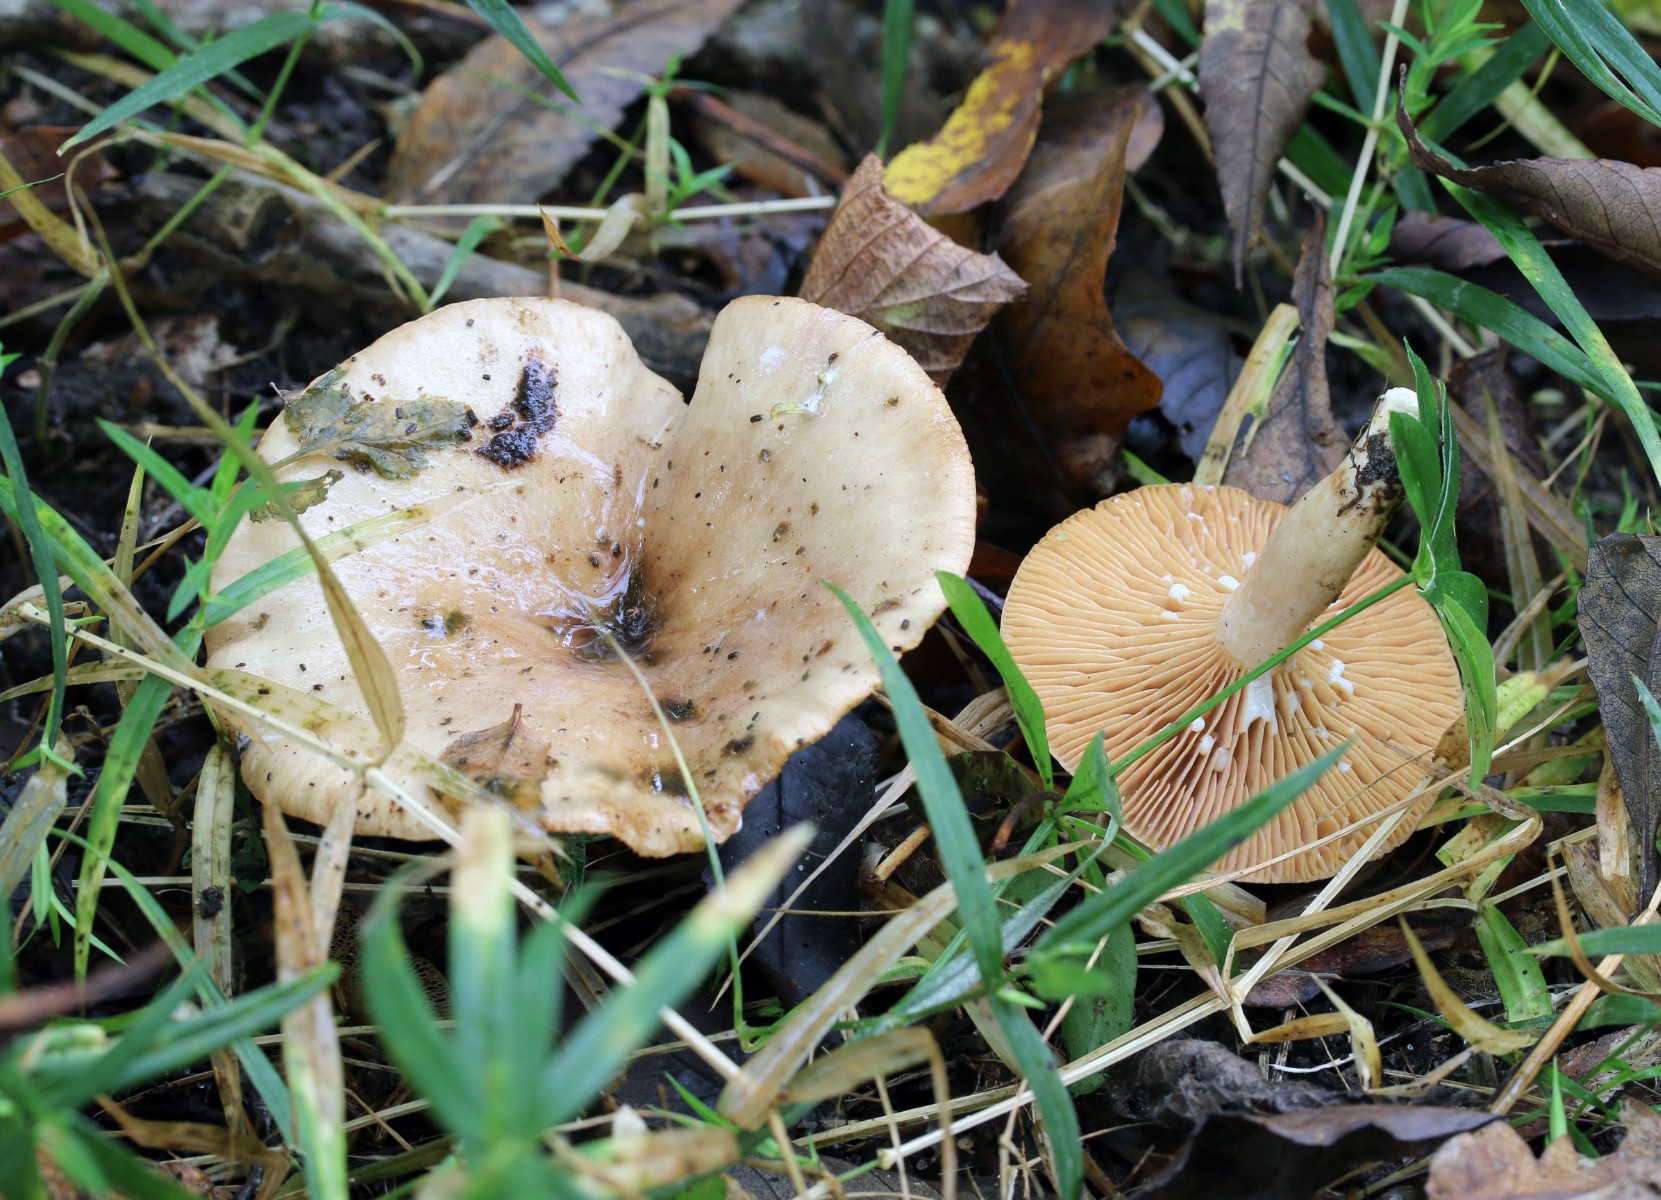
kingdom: Fungi
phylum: Basidiomycota
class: Agaricomycetes
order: Russulales
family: Russulaceae
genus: Lactarius
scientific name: Lactarius pyrogalus
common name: hassel-mælkehat
